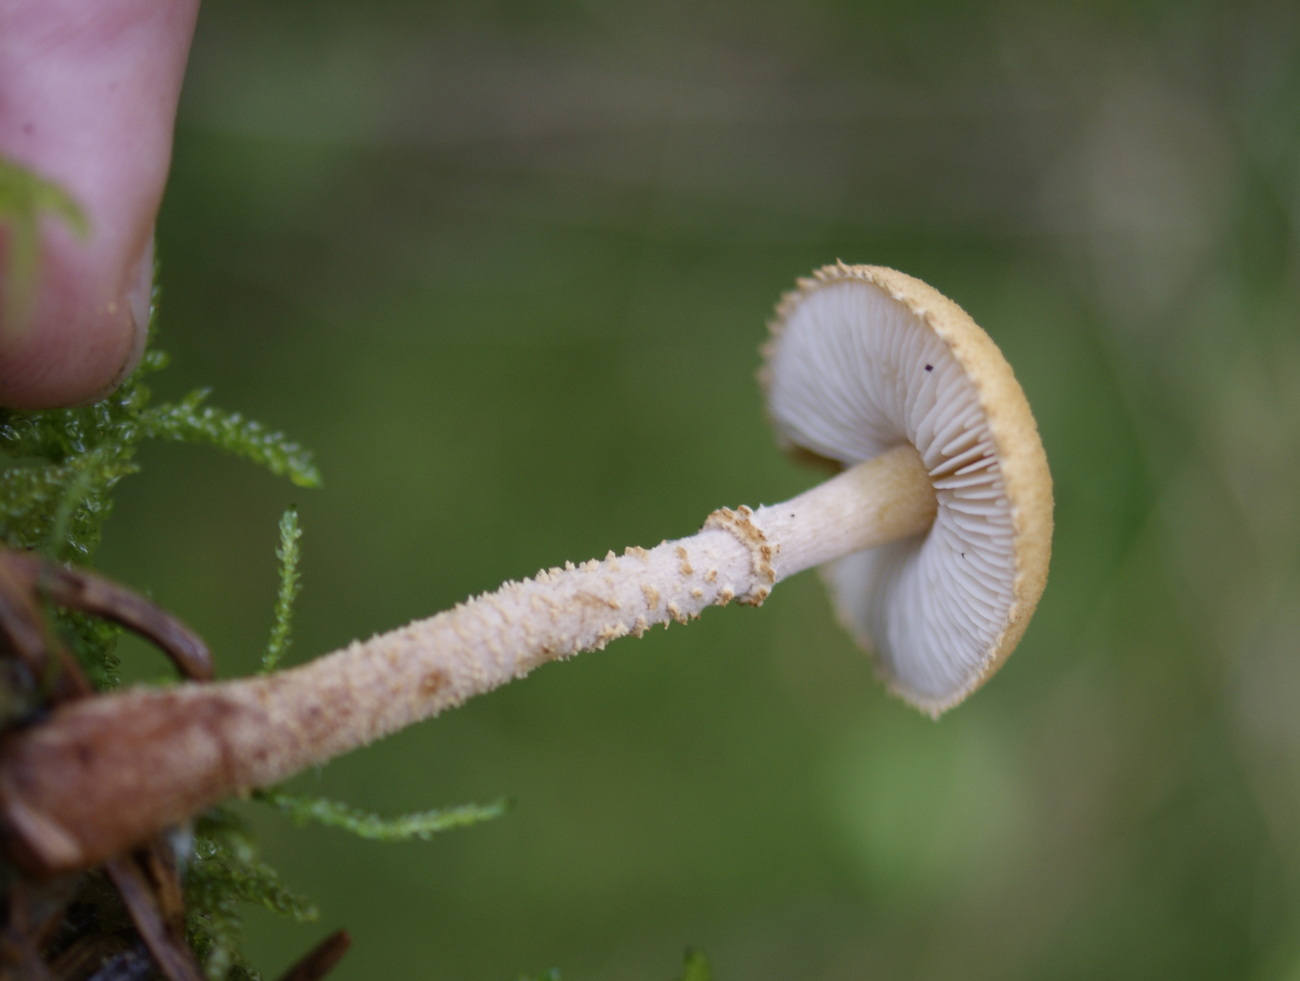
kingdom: Fungi
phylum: Basidiomycota
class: Agaricomycetes
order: Agaricales
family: Tricholomataceae
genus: Cystoderma
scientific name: Cystoderma amianthinum
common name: okkergul grynhat
